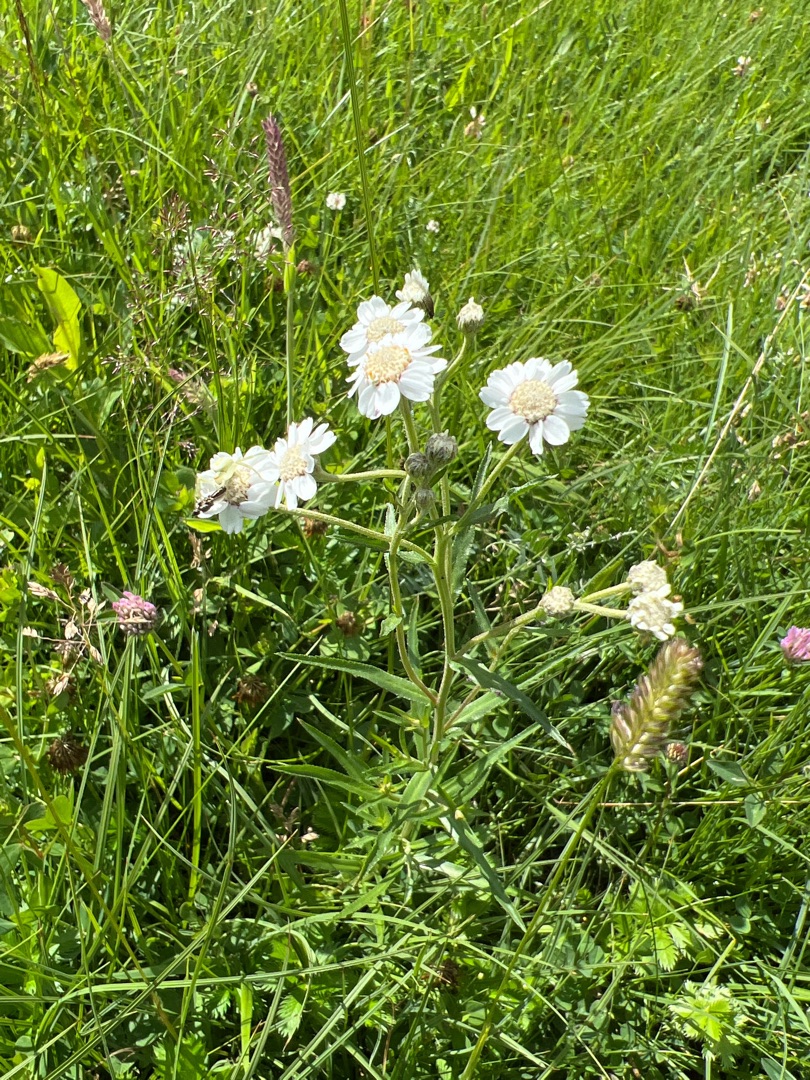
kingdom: Plantae
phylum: Tracheophyta
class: Magnoliopsida
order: Asterales
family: Asteraceae
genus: Achillea
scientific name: Achillea ptarmica
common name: Nyse-røllike
